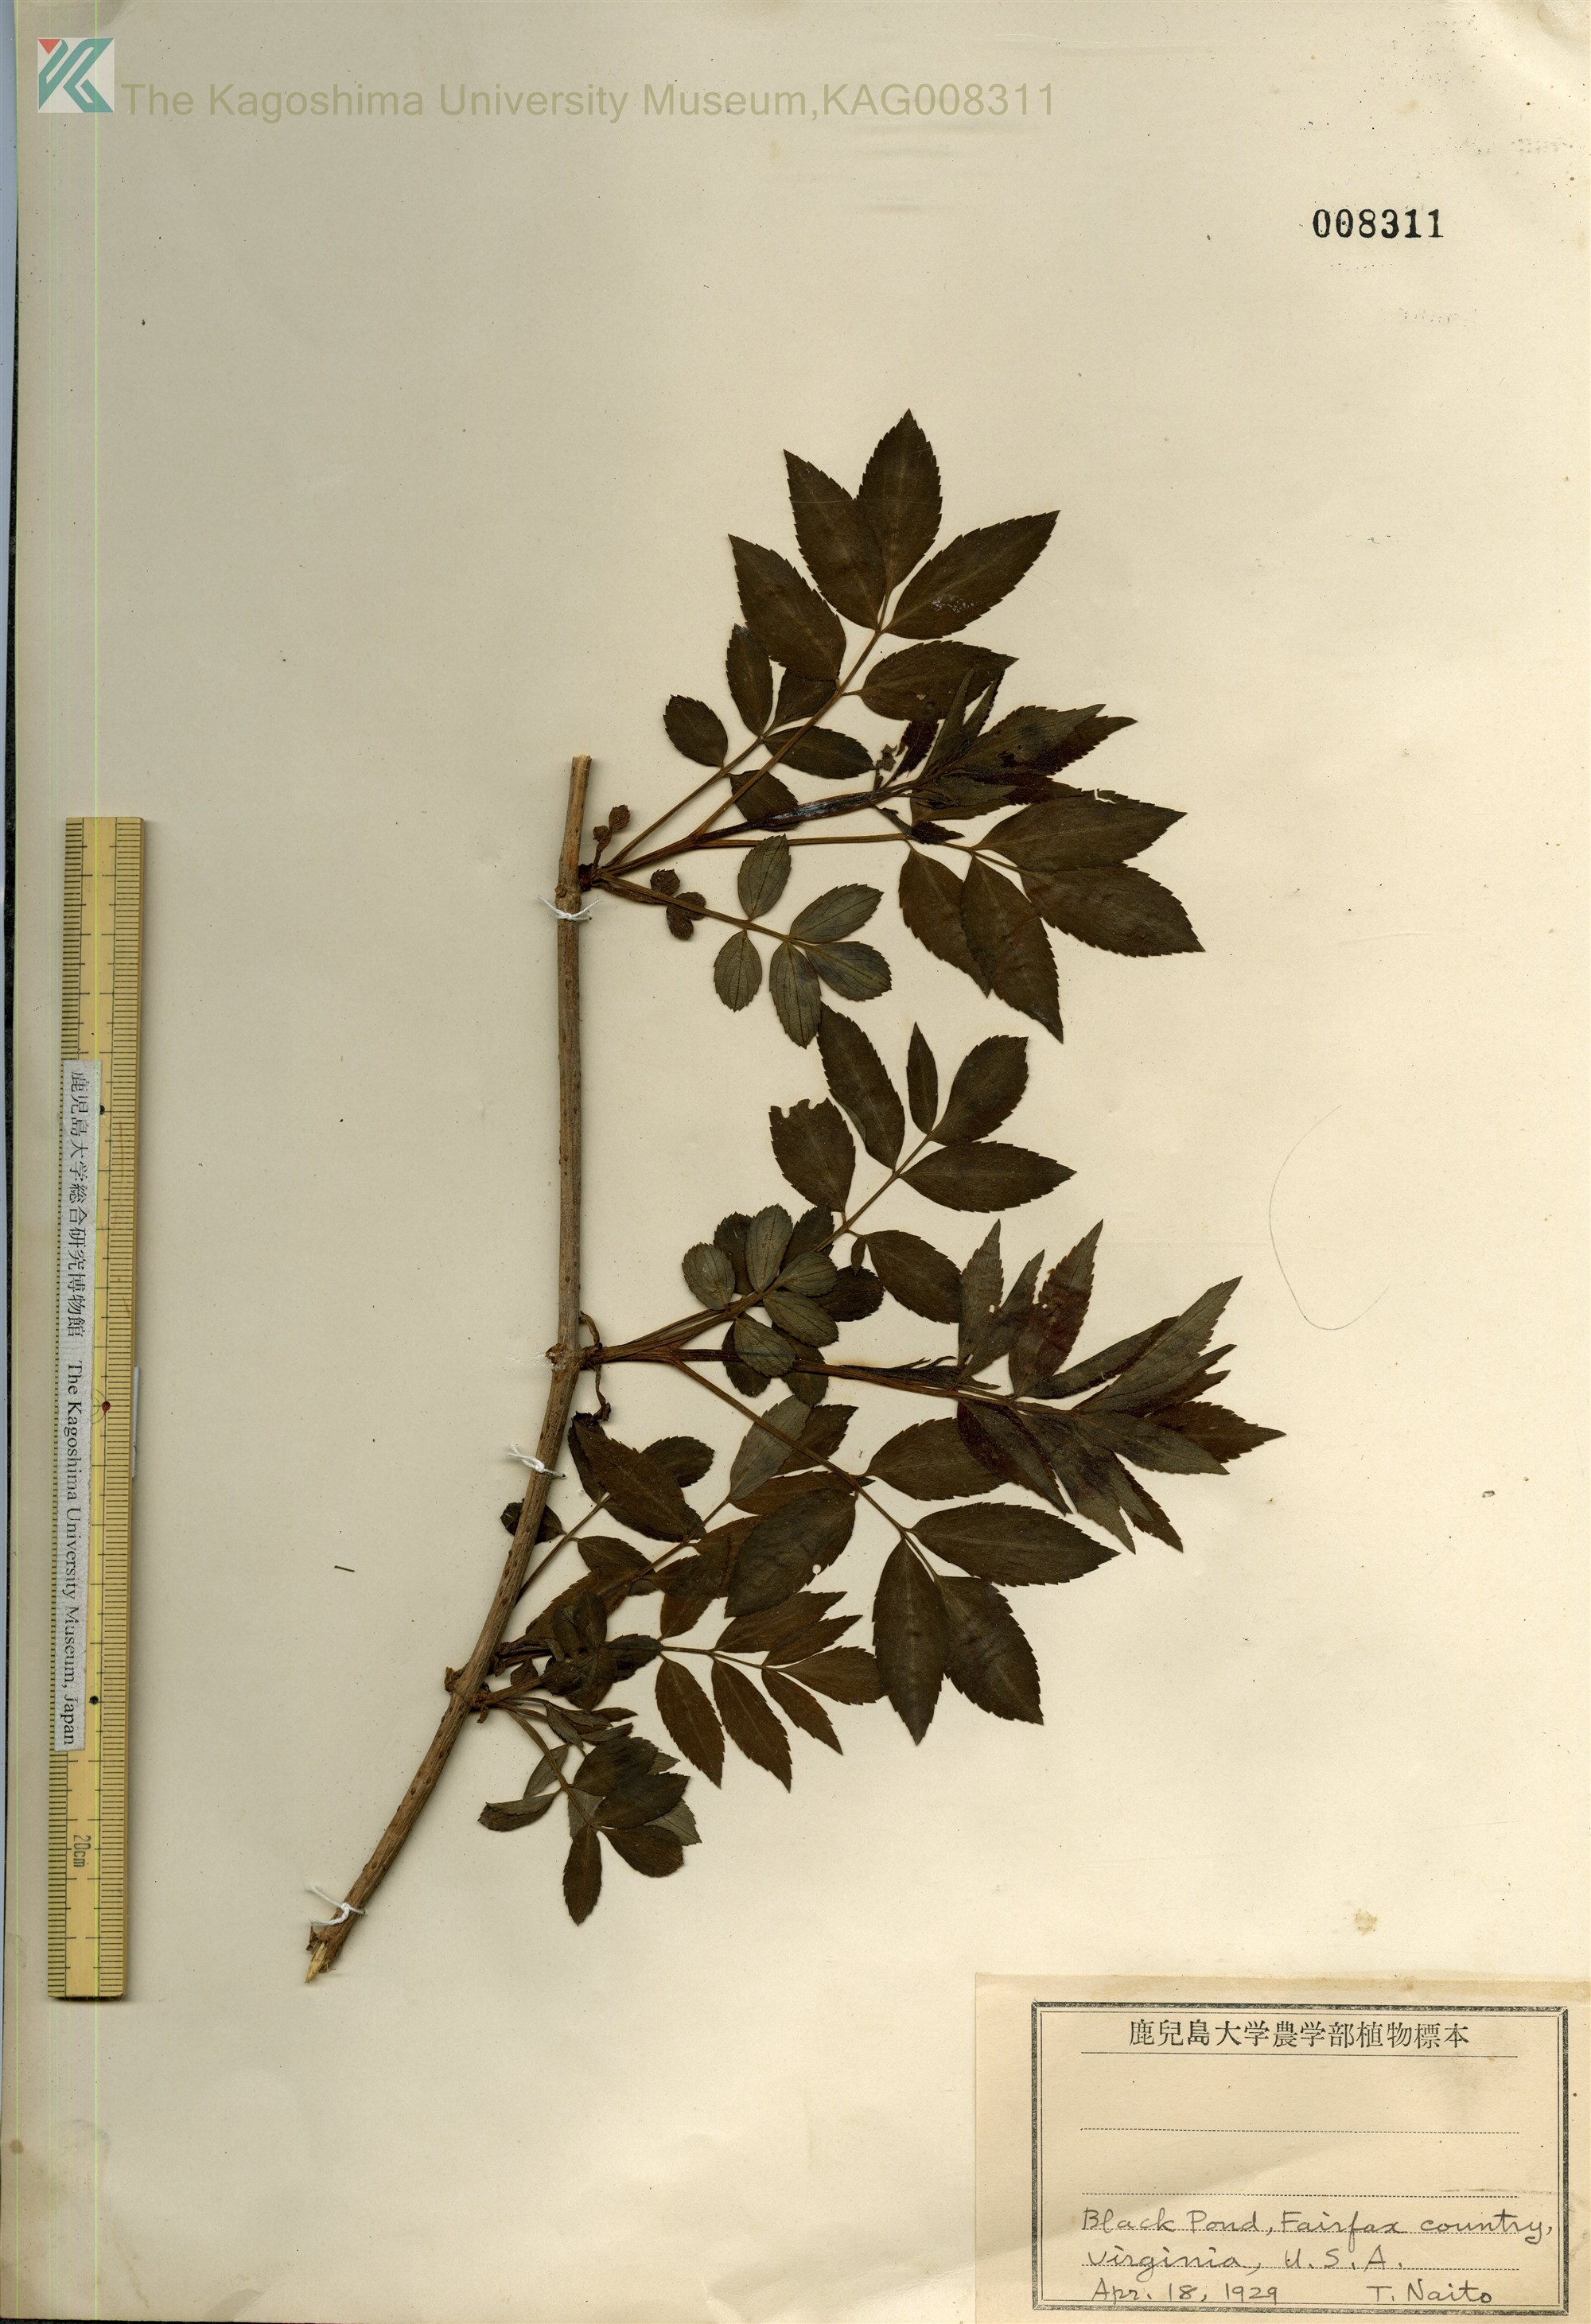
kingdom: Plantae
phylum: Tracheophyta
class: Magnoliopsida
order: Dipsacales
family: Viburnaceae
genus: Sambucus
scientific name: Sambucus canadensis
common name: American elder
